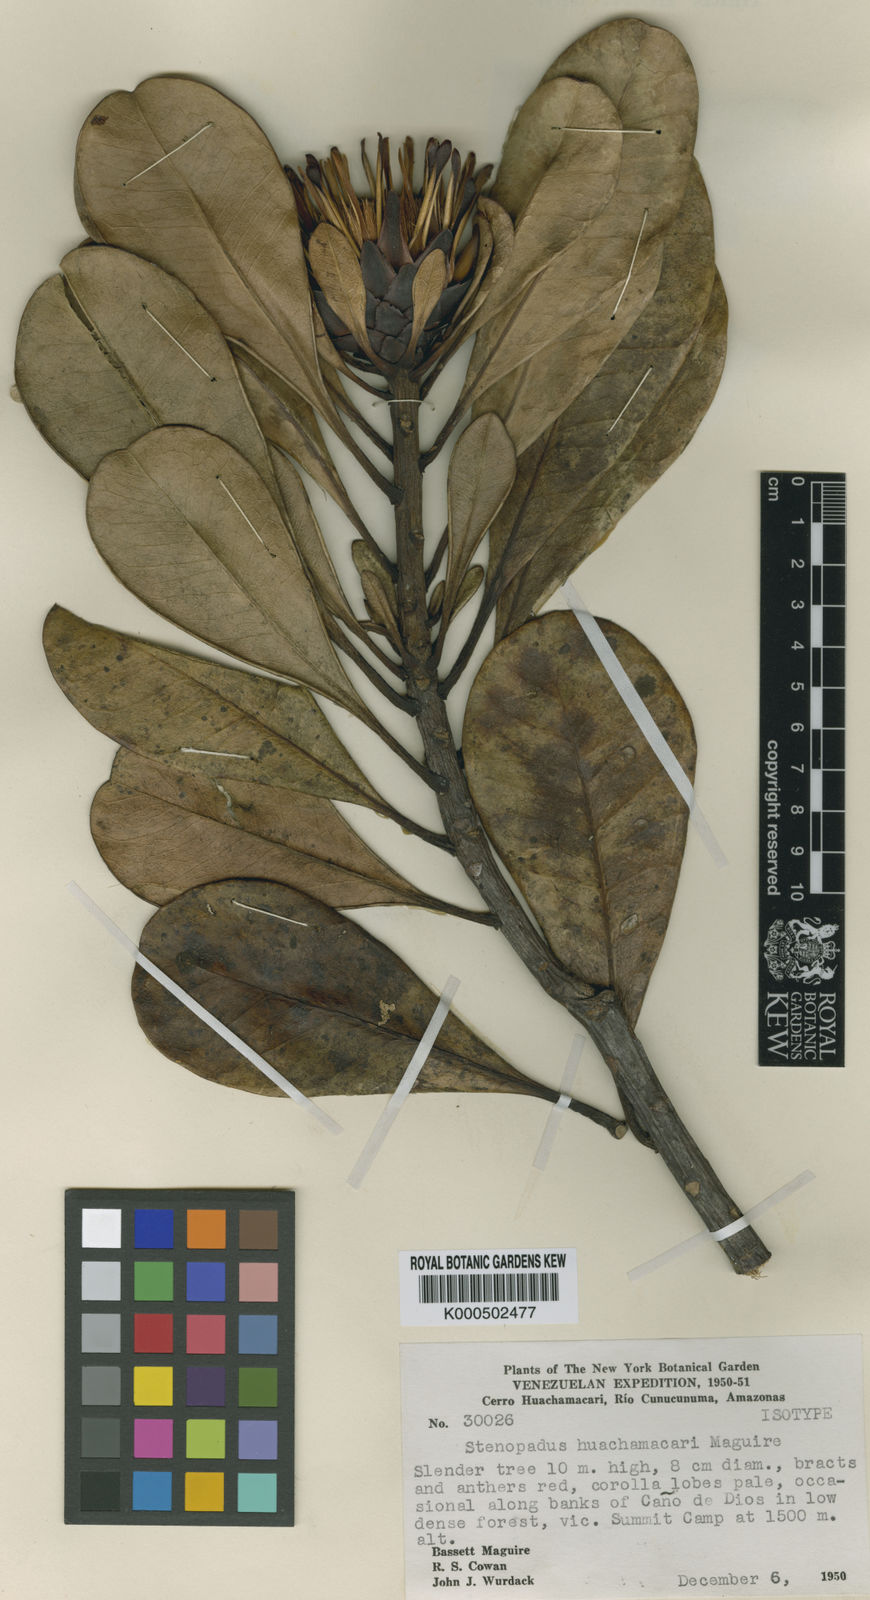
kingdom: Plantae
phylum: Tracheophyta
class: Magnoliopsida
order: Asterales
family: Asteraceae
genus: Stenopadus
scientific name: Stenopadus huachamacari
